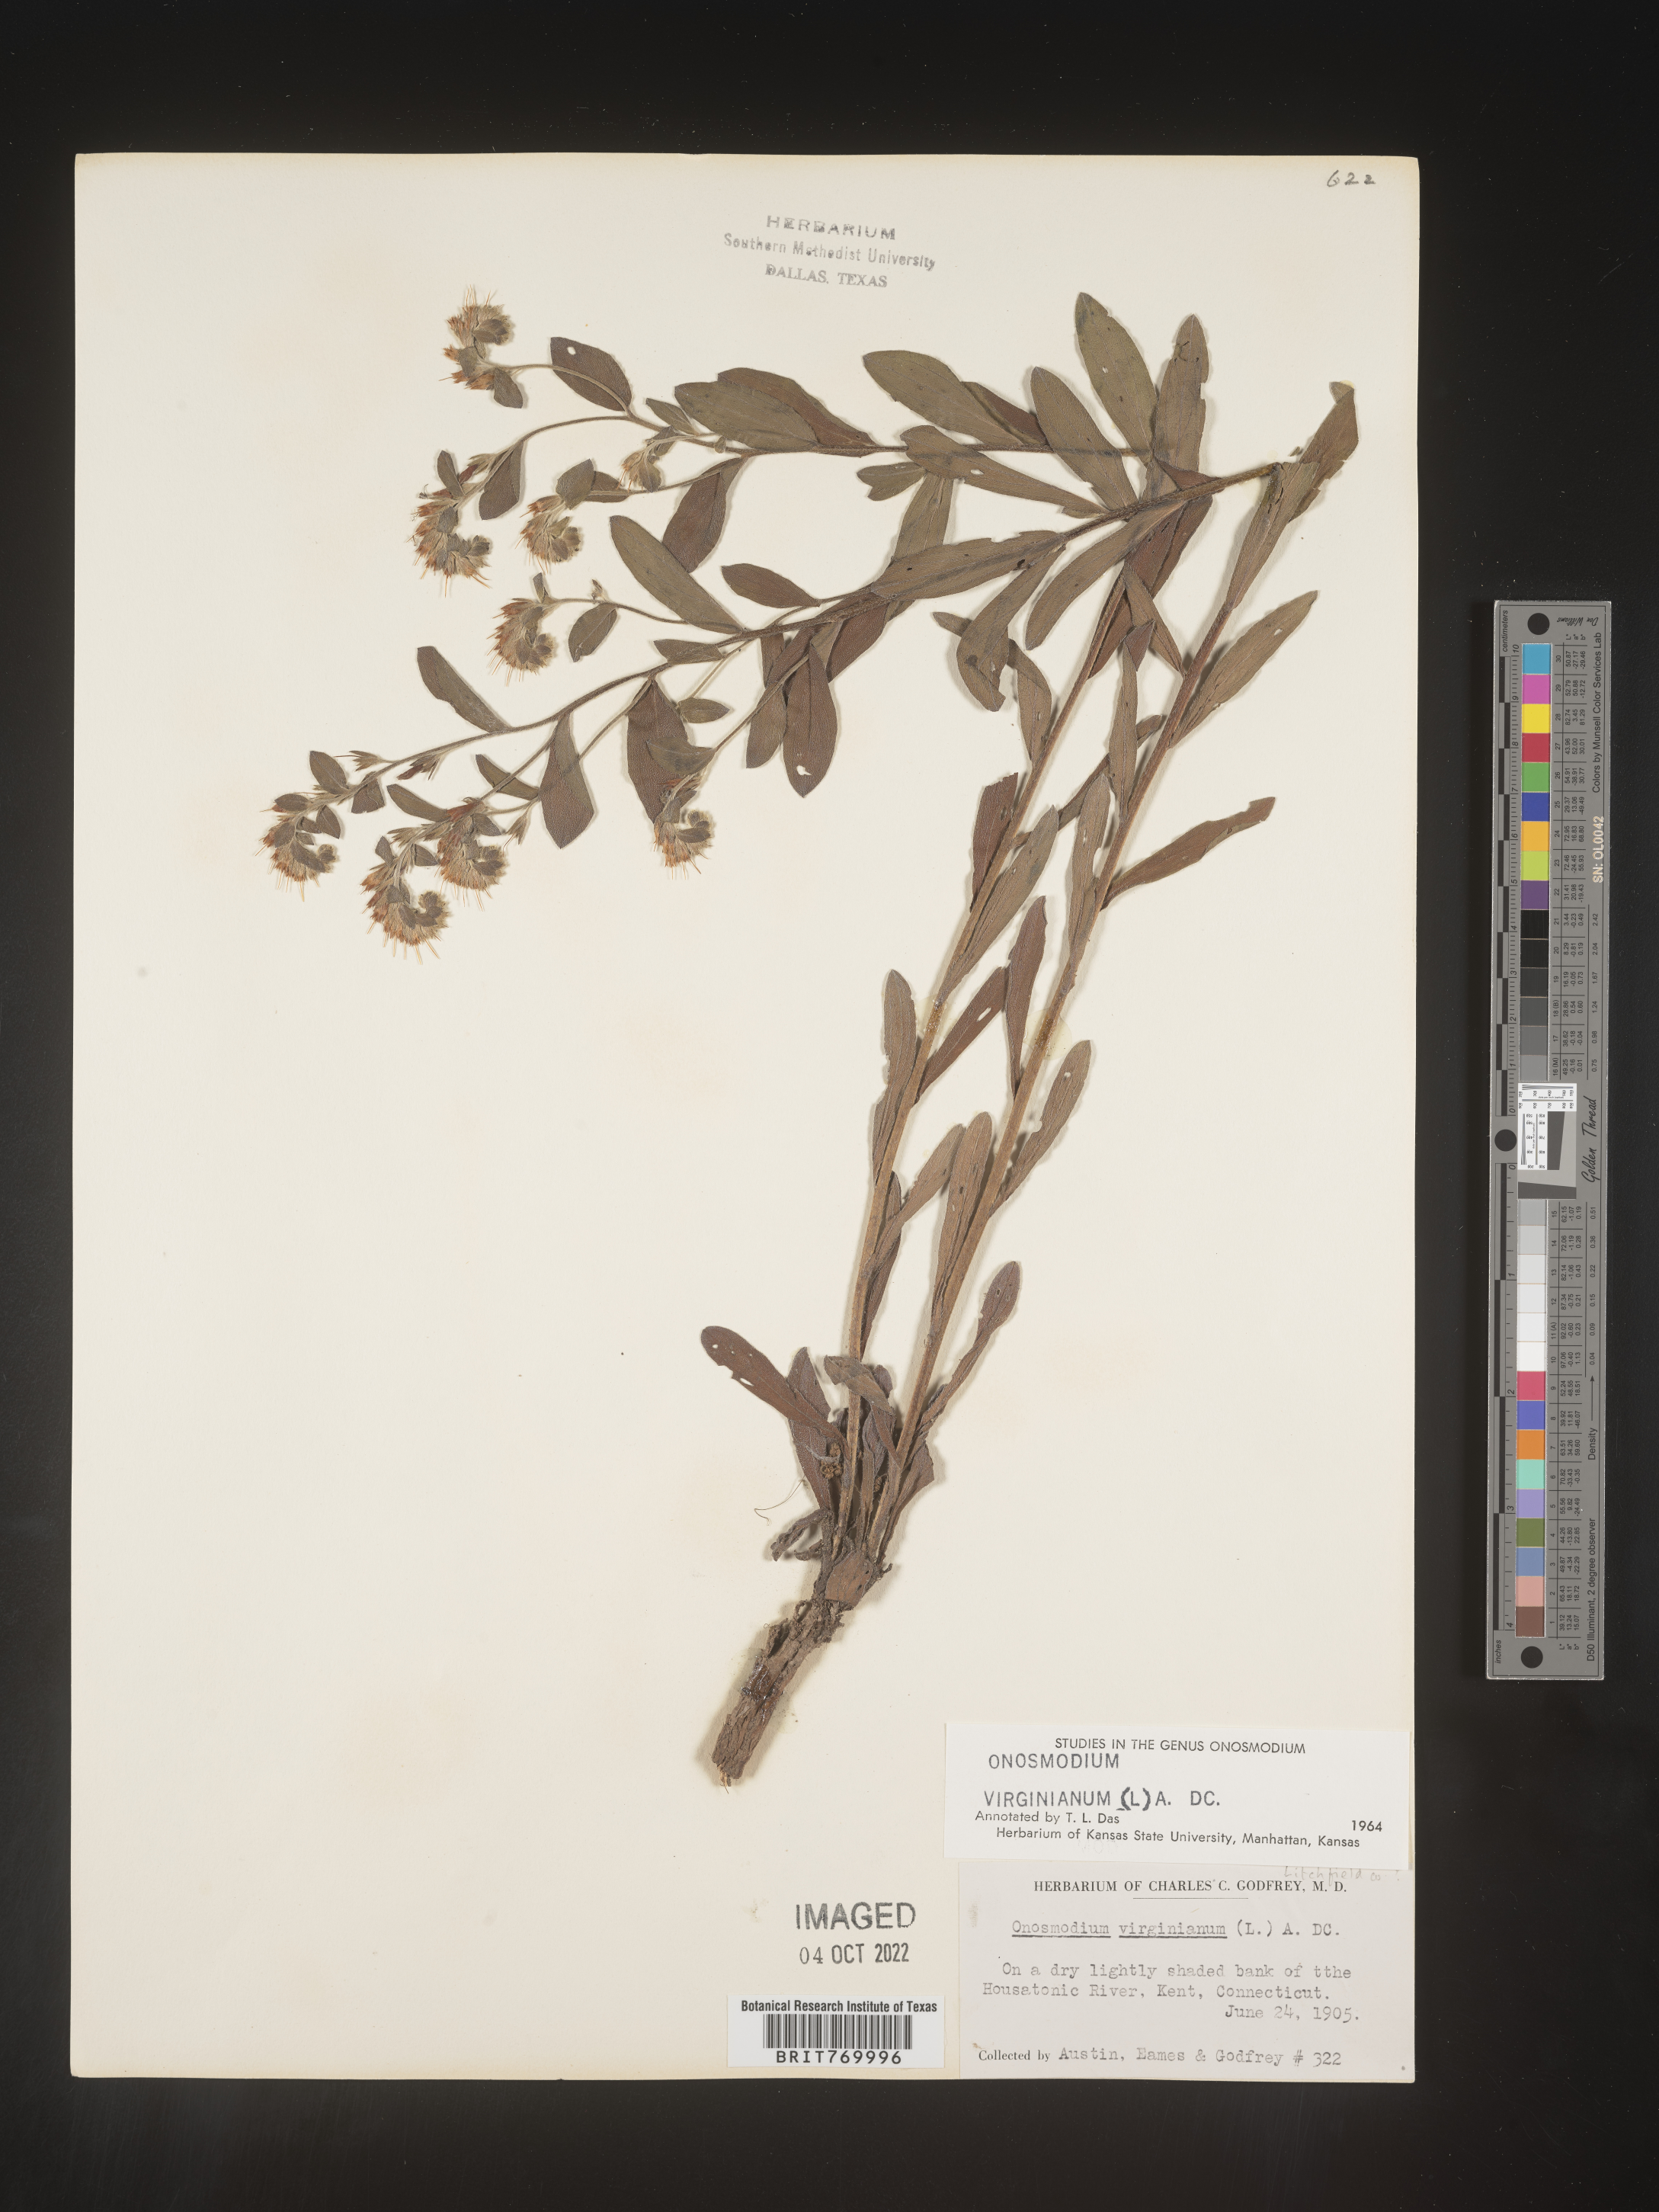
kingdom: Plantae
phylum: Tracheophyta
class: Magnoliopsida
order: Boraginales
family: Boraginaceae
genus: Lithospermum
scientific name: Lithospermum virginianum
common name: Eastern false gromwell
